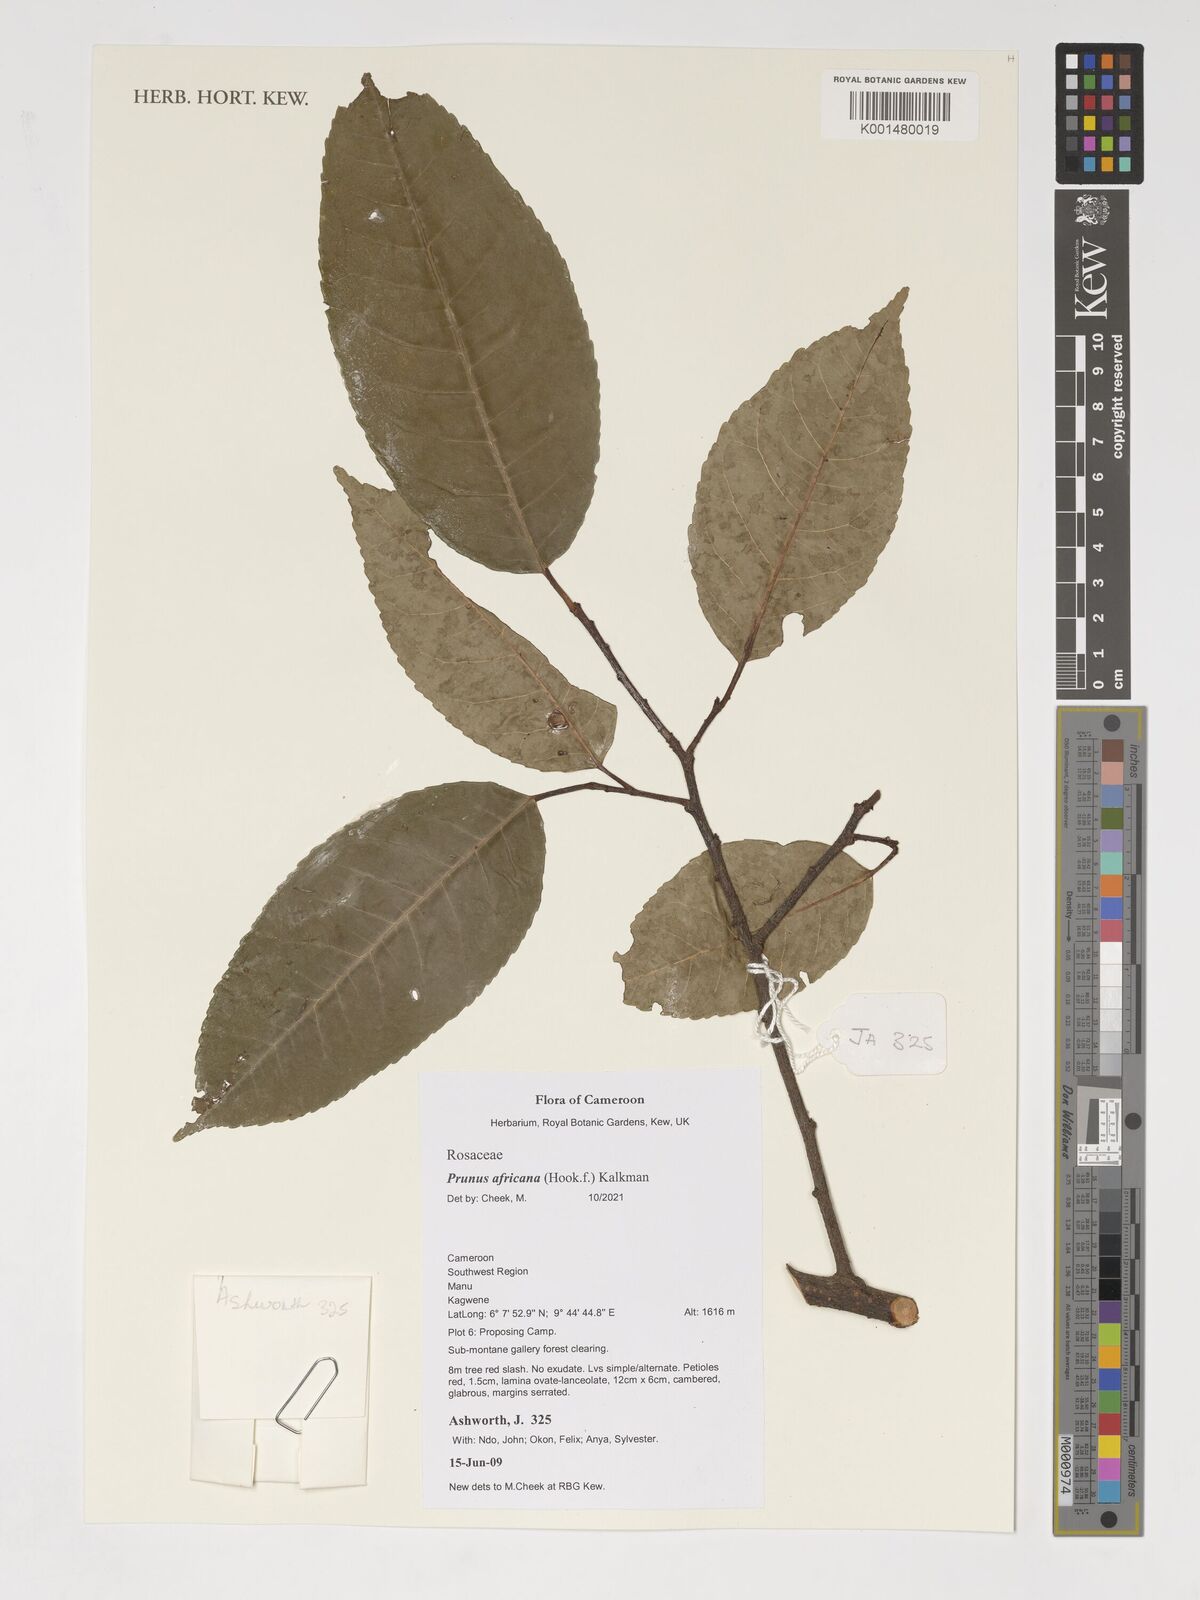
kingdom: Plantae
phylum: Tracheophyta
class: Magnoliopsida
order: Rosales
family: Rosaceae
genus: Prunus
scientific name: Prunus africana
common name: African cherry
